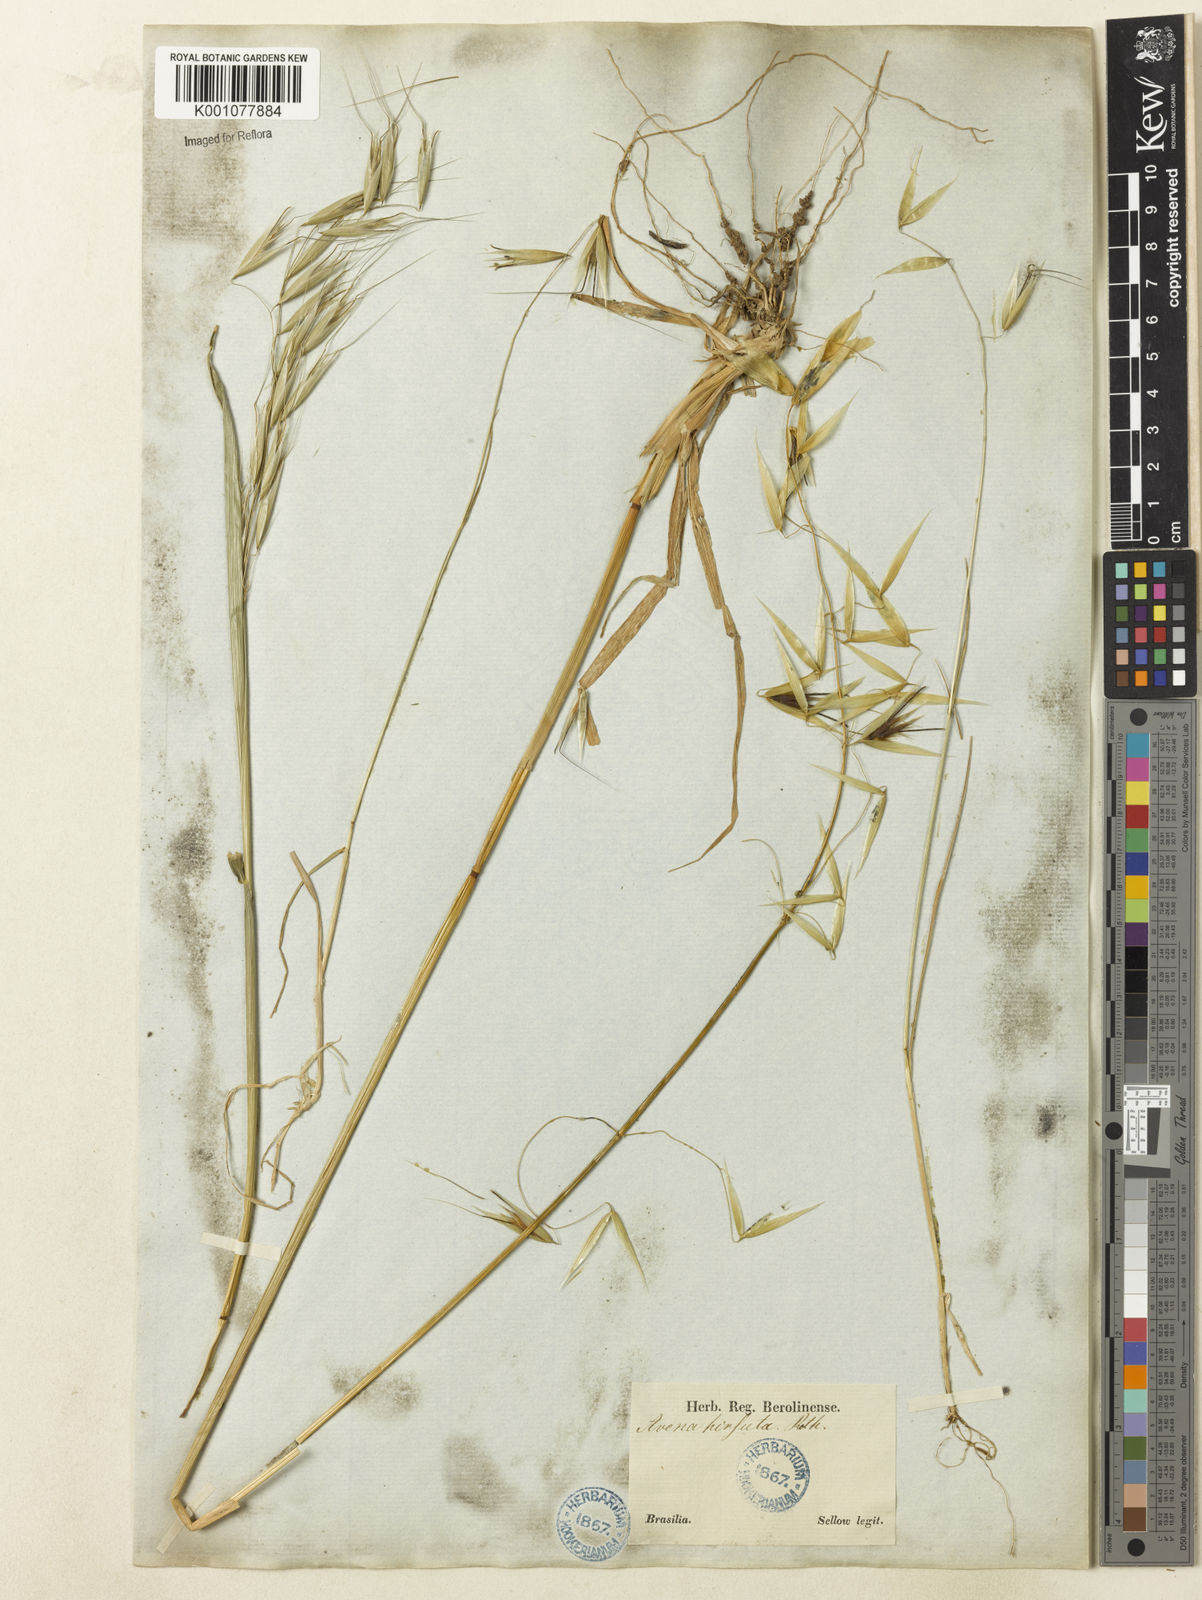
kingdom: Plantae
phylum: Tracheophyta
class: Liliopsida
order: Poales
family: Poaceae
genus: Avena
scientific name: Avena barbata
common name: Slender oat
